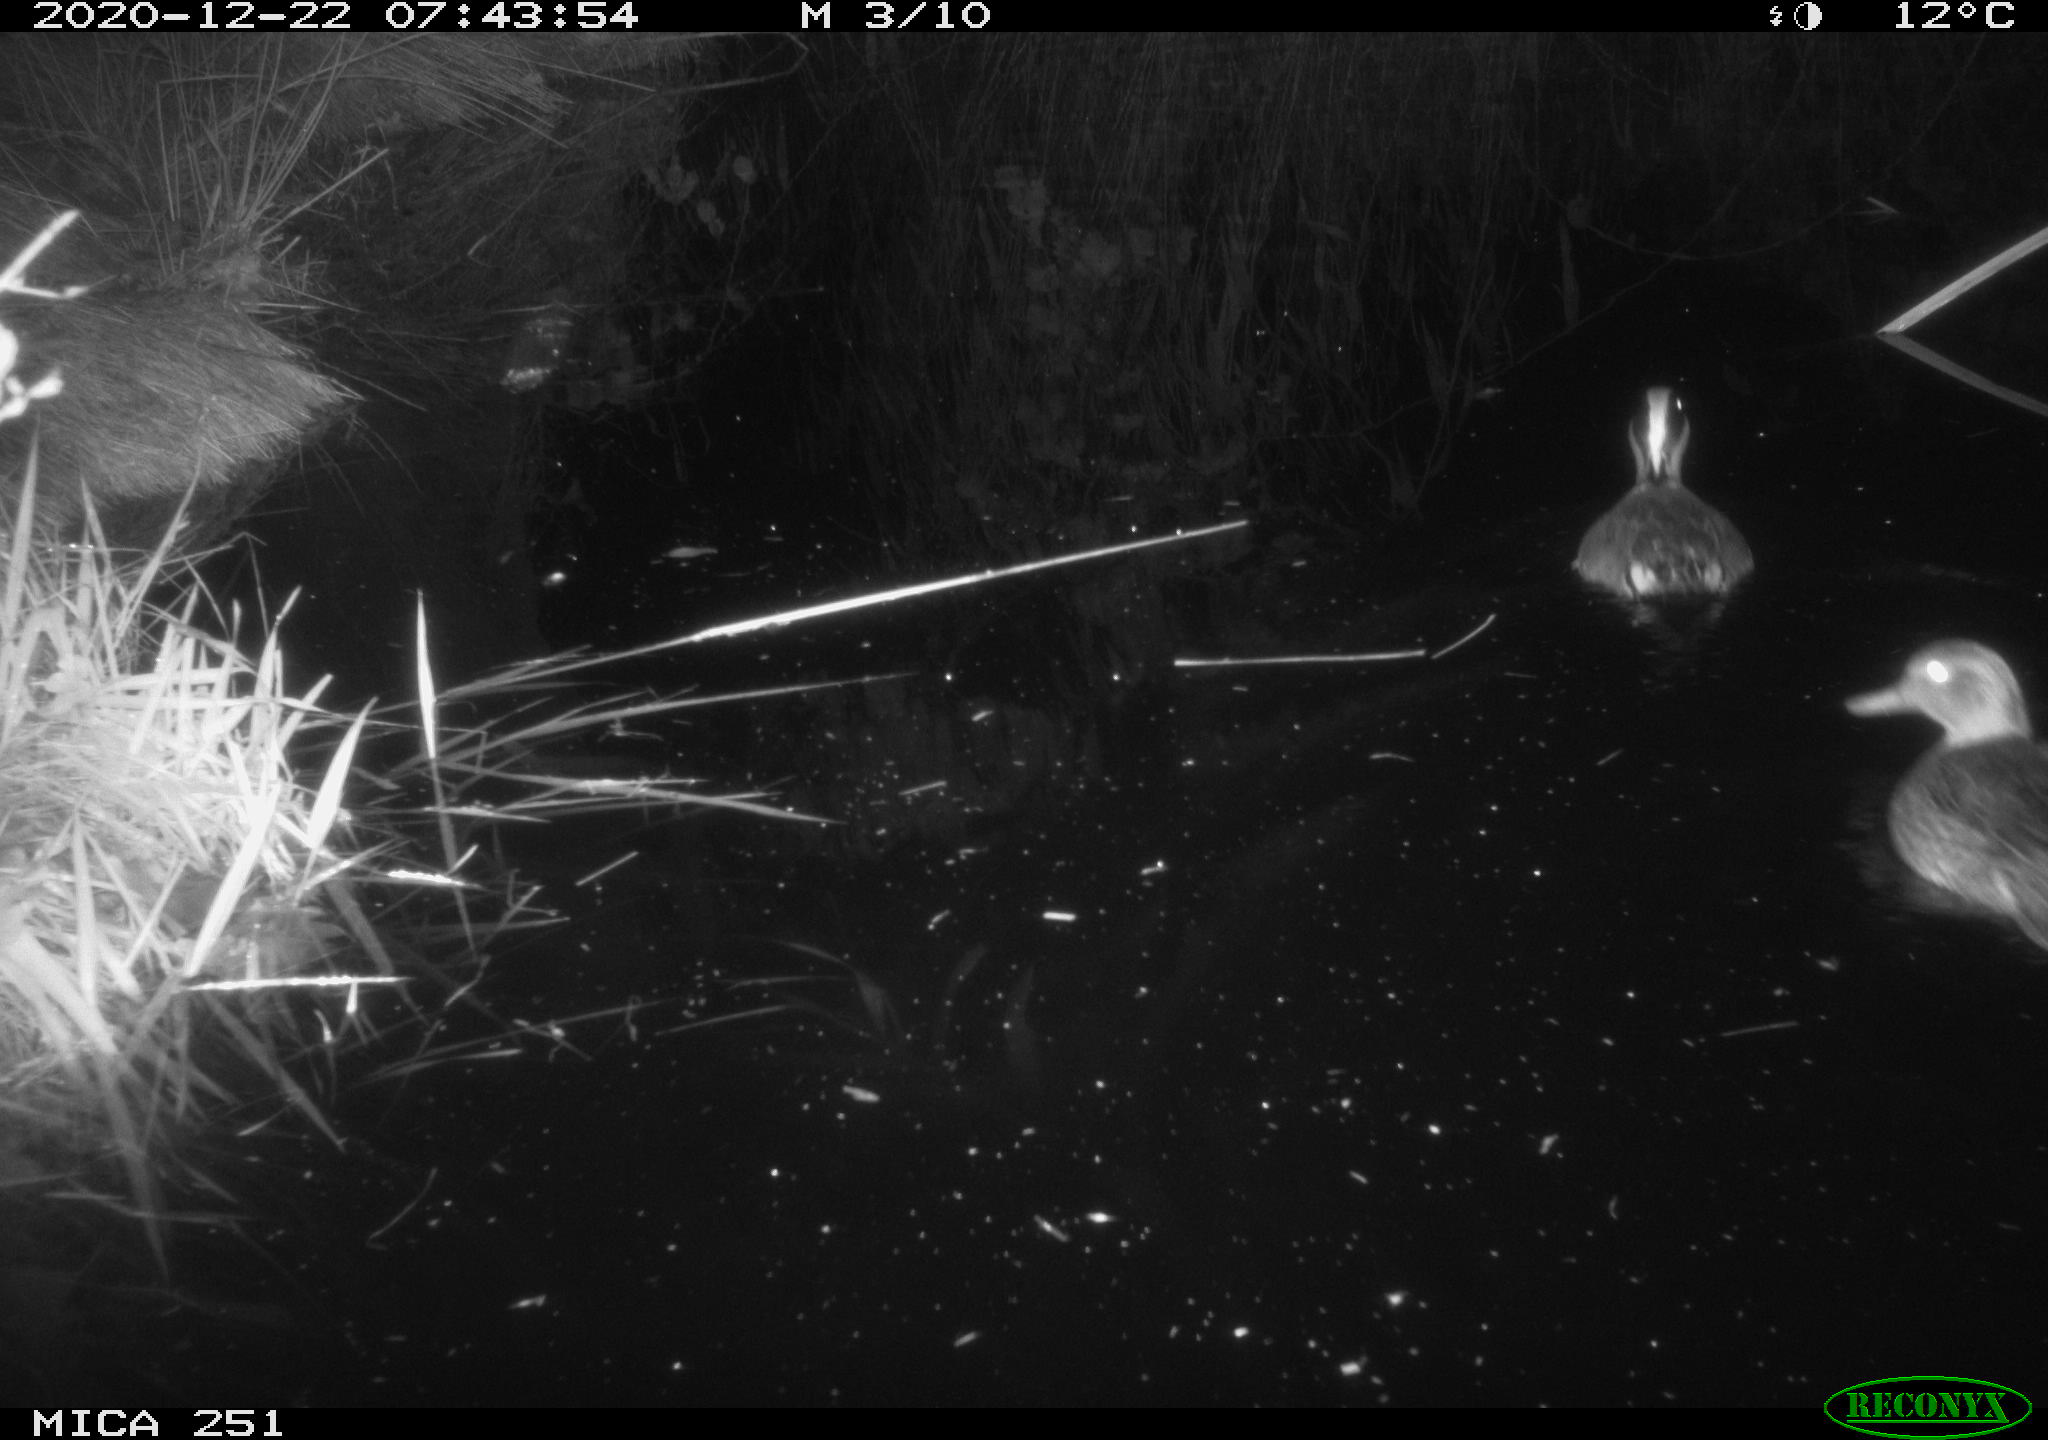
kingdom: Animalia
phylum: Chordata
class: Aves
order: Anseriformes
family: Anatidae
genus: Anas
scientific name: Anas crecca
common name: Eurasian teal
